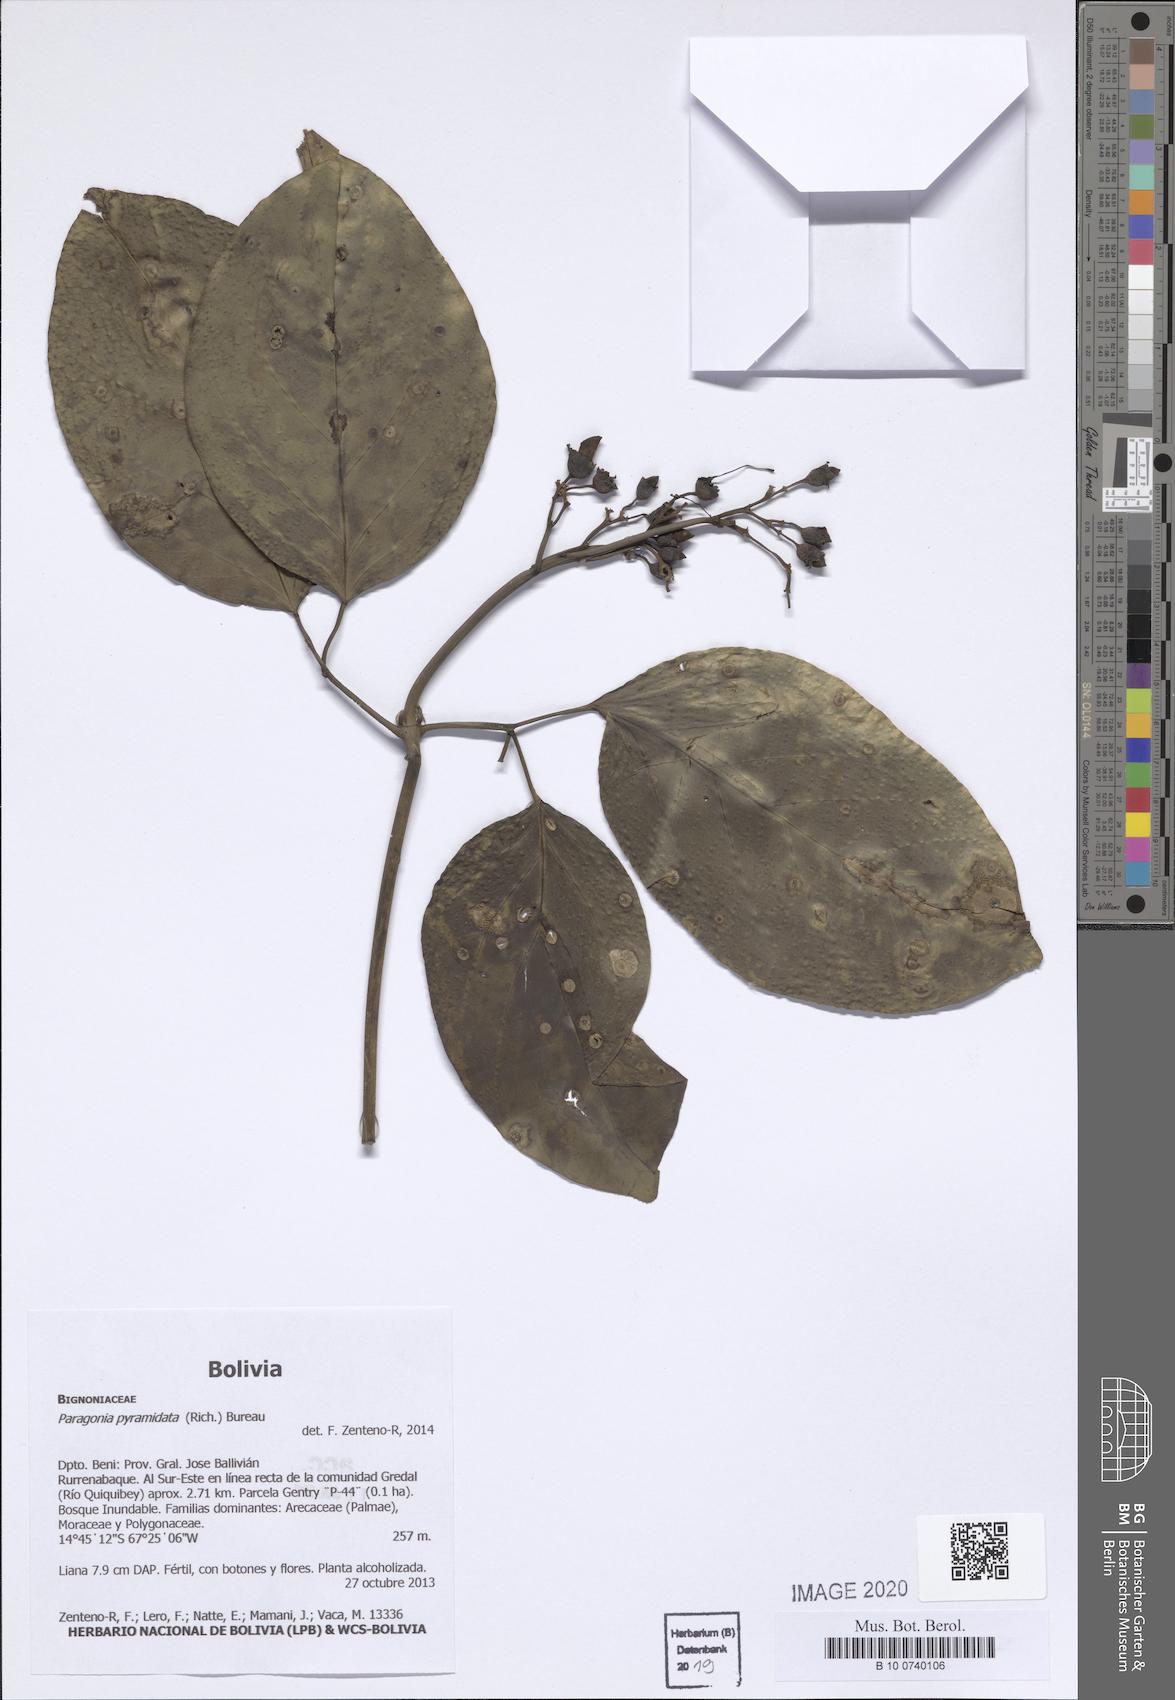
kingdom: Plantae
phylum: Tracheophyta
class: Magnoliopsida
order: Lamiales
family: Bignoniaceae
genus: Tanaecium
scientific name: Tanaecium pyramidatum
